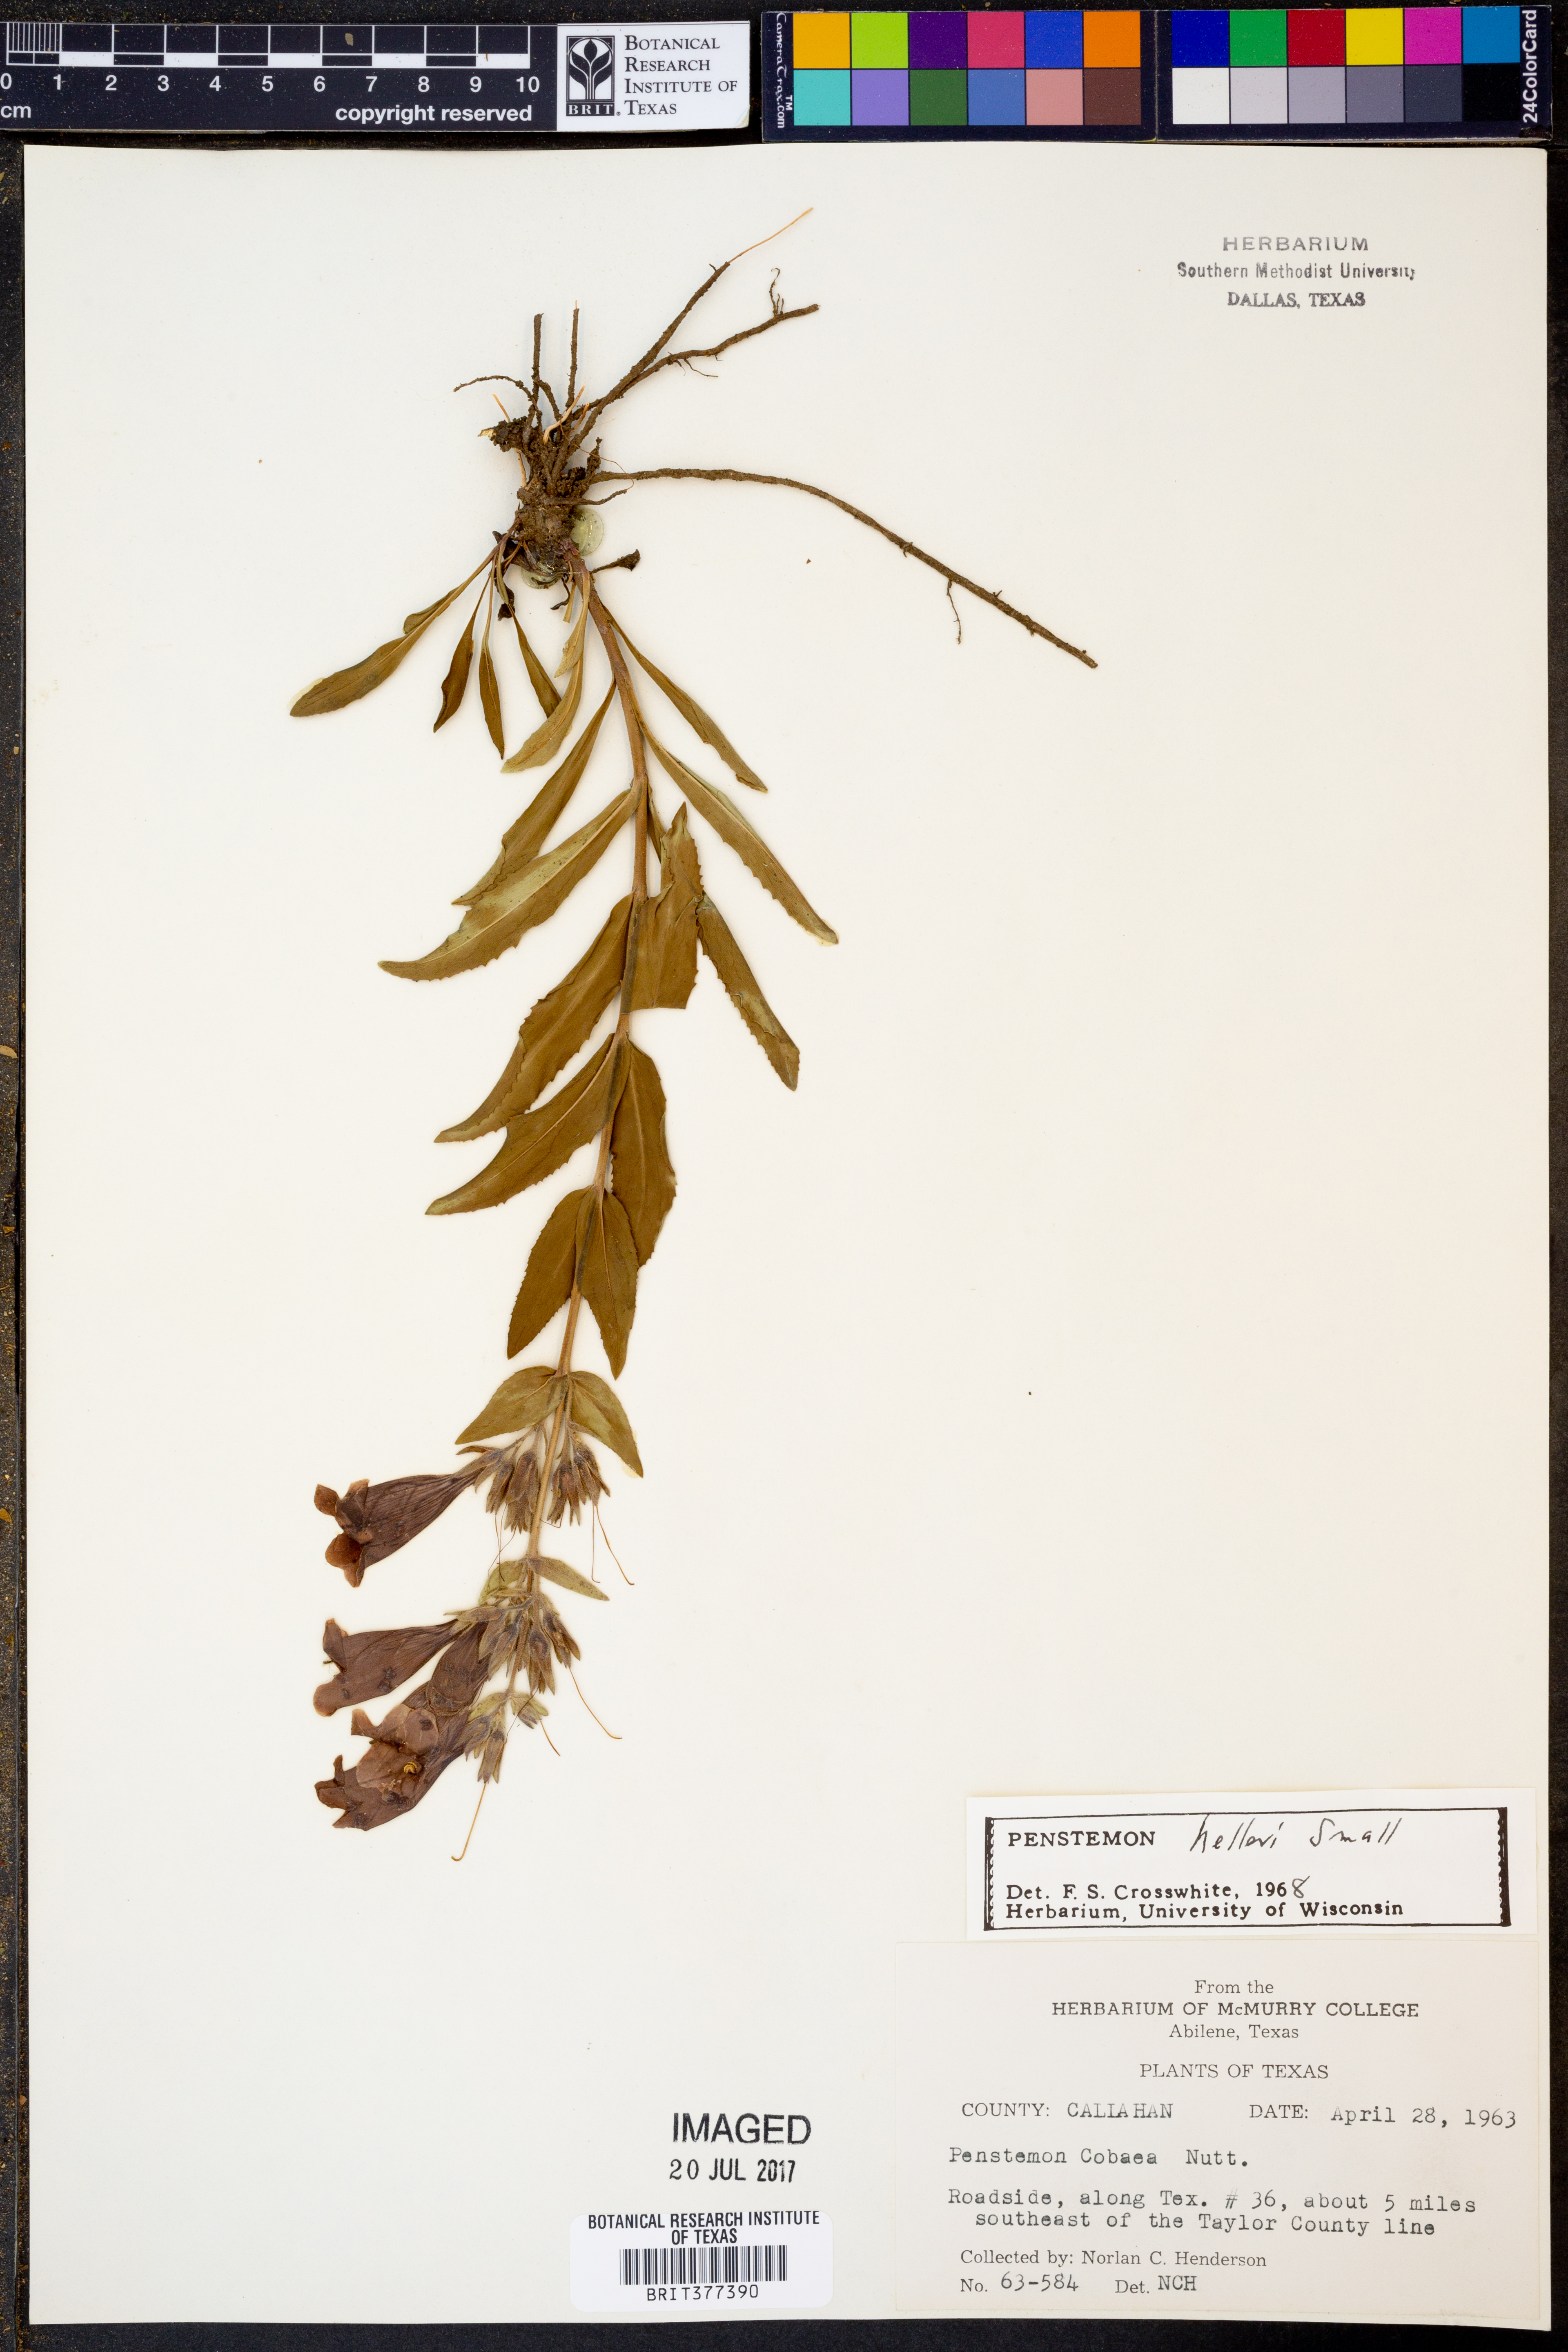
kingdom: Plantae
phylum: Tracheophyta
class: Magnoliopsida
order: Lamiales
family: Plantaginaceae
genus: Penstemon
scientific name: Penstemon triflorus
